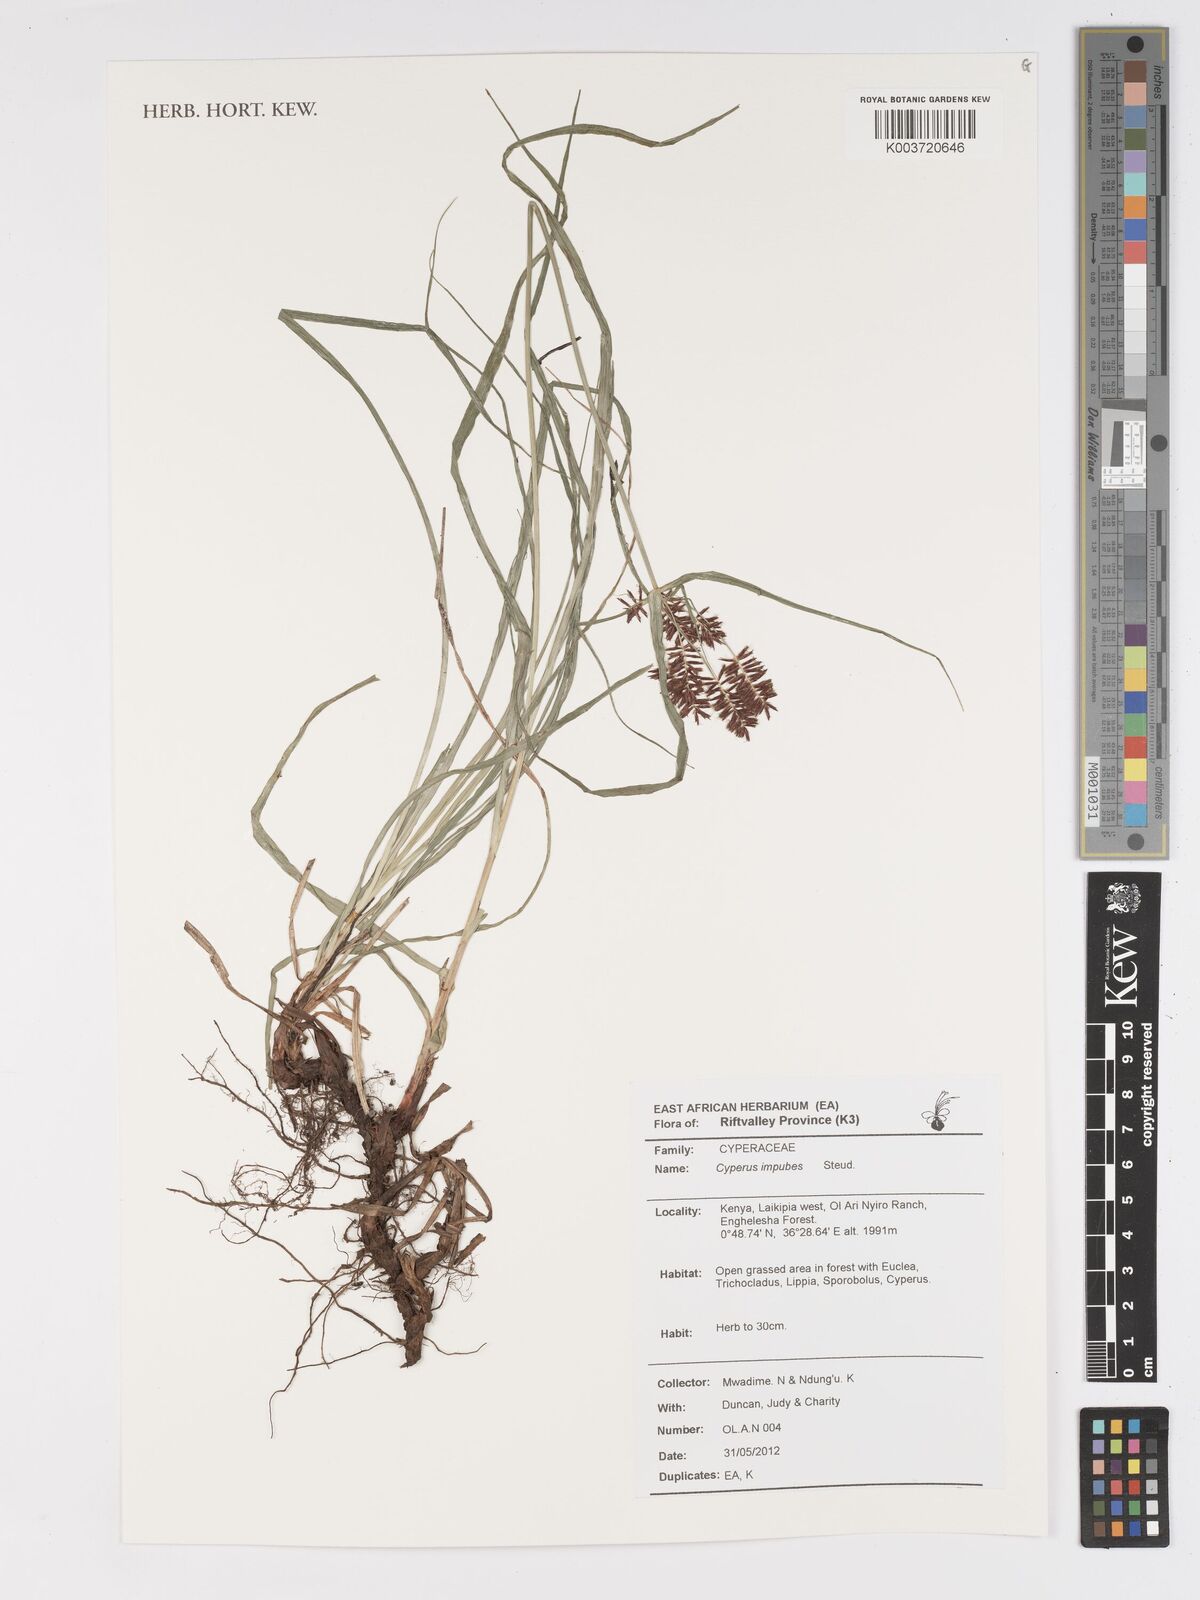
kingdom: Plantae
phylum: Tracheophyta
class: Liliopsida
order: Poales
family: Cyperaceae
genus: Cyperus
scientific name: Cyperus impubes
